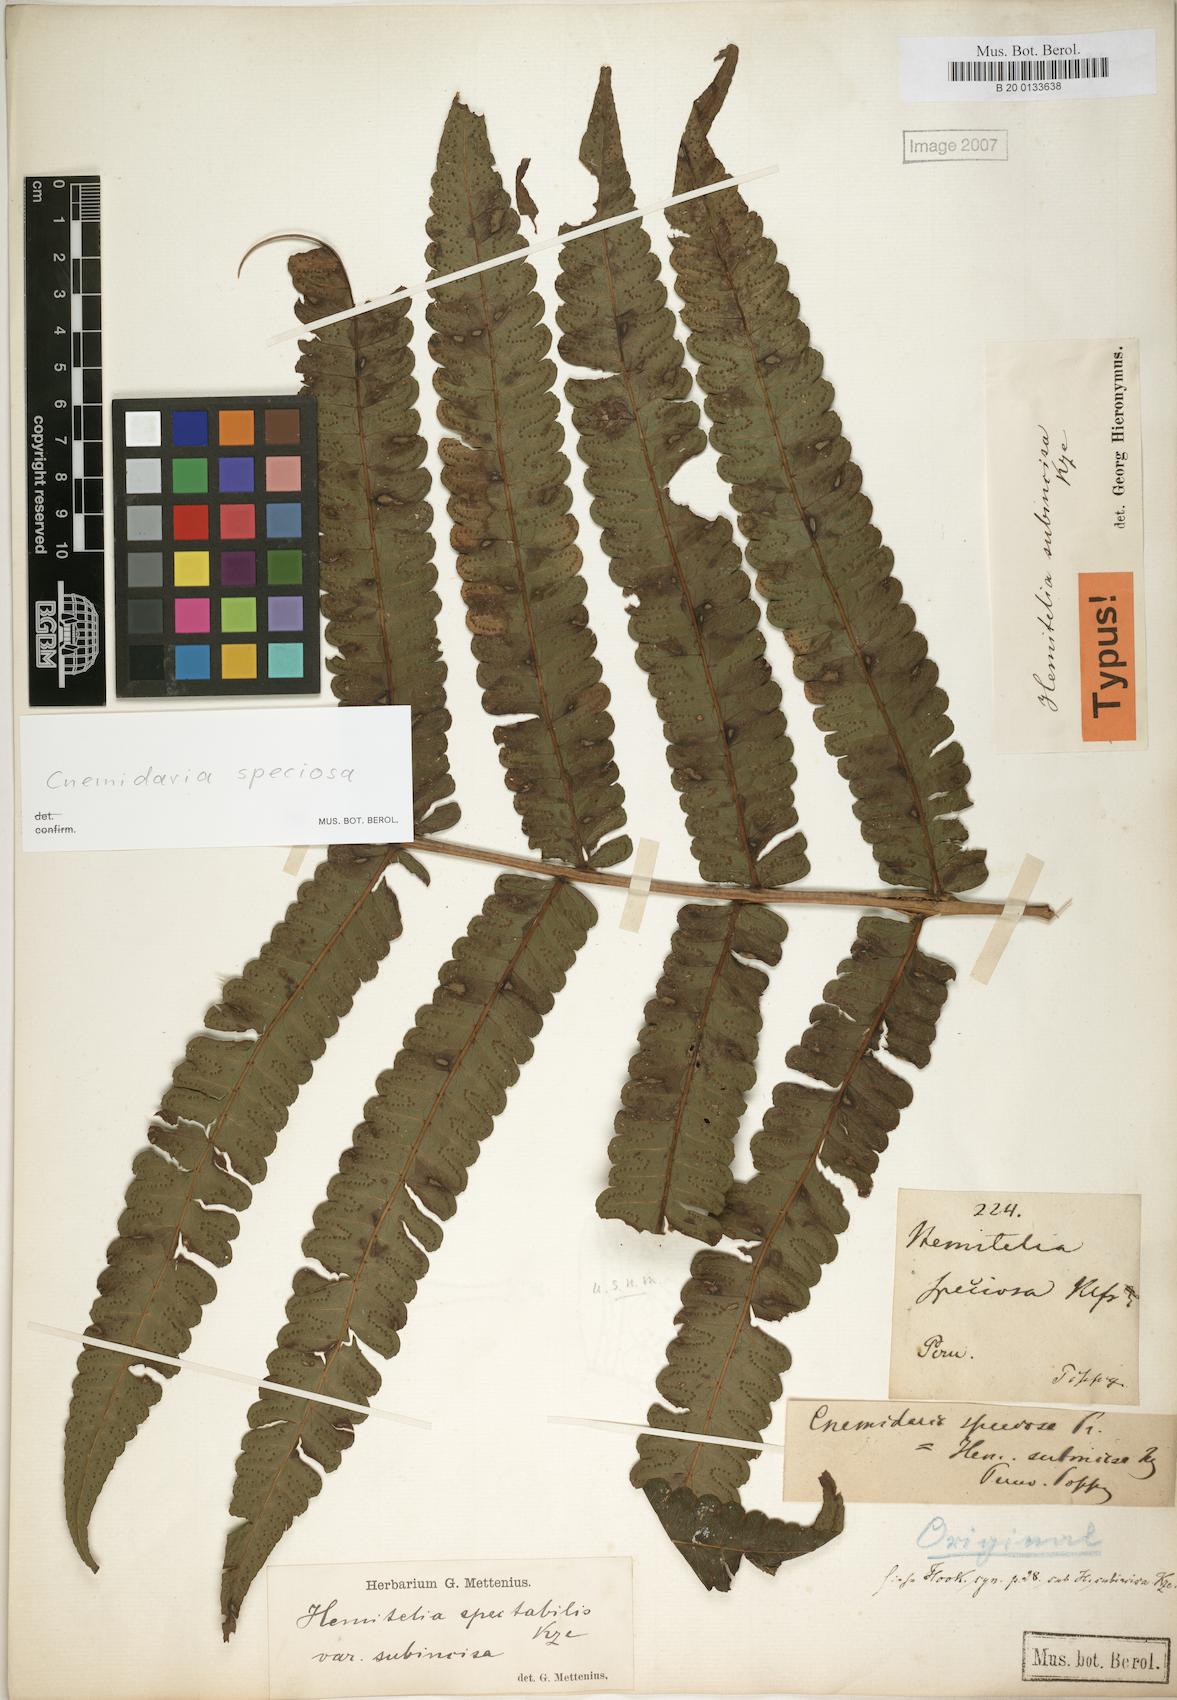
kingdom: Plantae
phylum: Tracheophyta
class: Polypodiopsida
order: Cyatheales
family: Cyatheaceae
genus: Cyathea
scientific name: Cyathea subincisa
